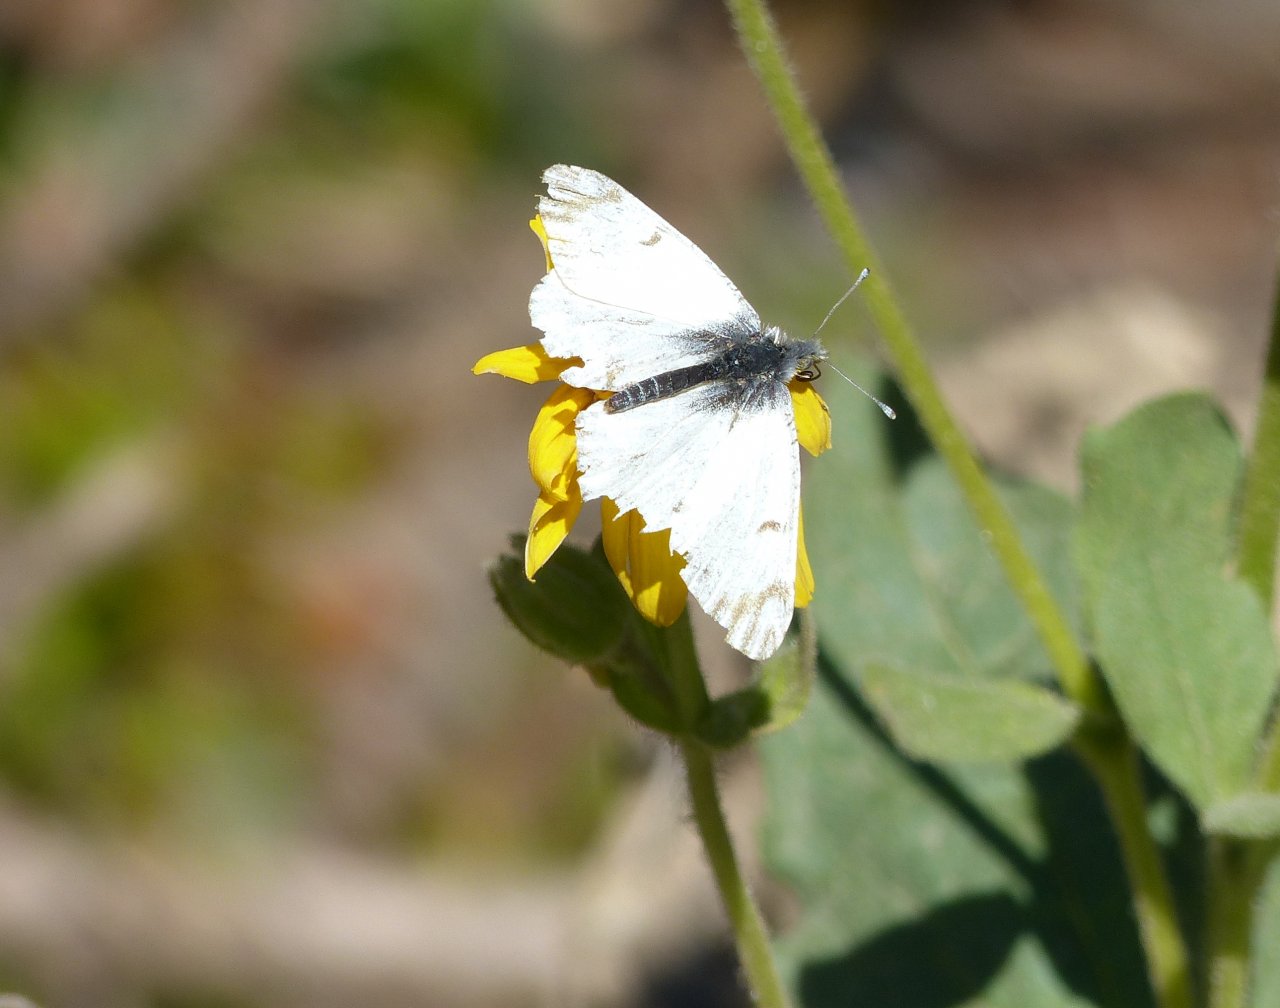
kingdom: Animalia
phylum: Arthropoda
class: Insecta
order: Lepidoptera
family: Pieridae
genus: Pontia
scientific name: Pontia occidentalis
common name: Western White
